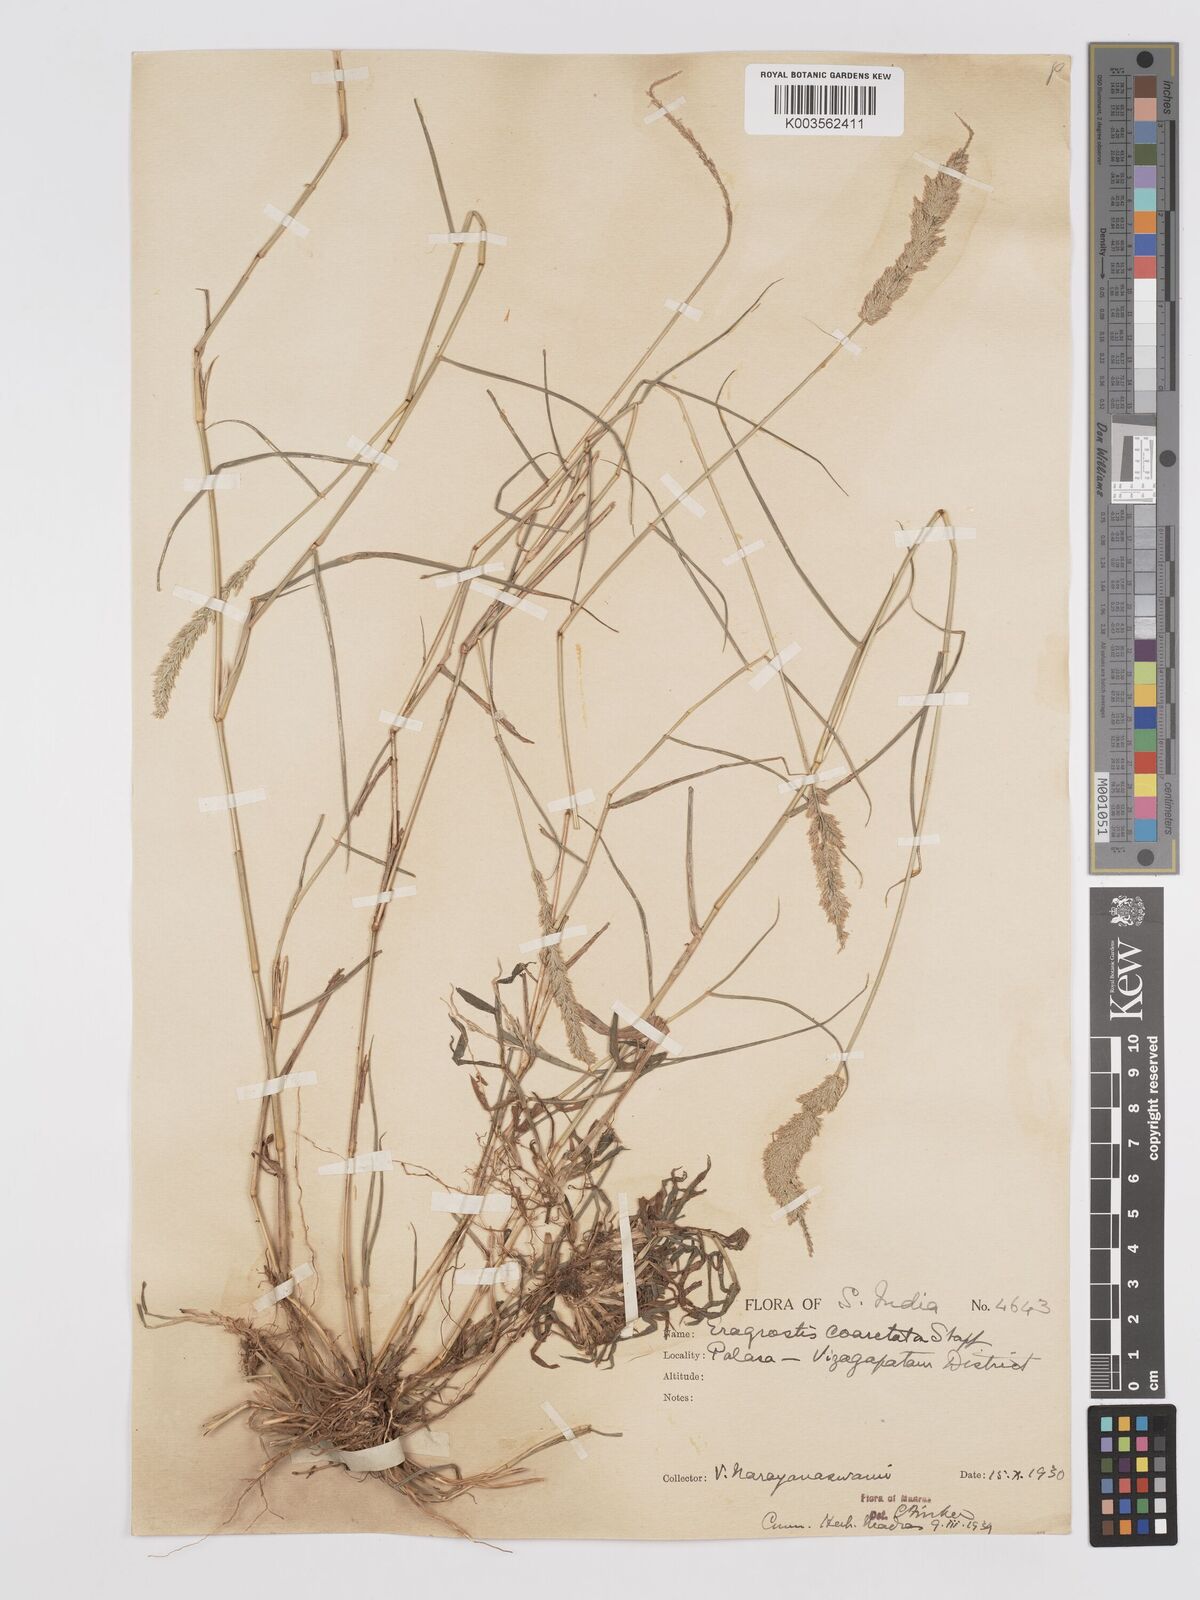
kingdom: Plantae
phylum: Tracheophyta
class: Liliopsida
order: Poales
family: Poaceae
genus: Eragrostis
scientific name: Eragrostis coarctata
